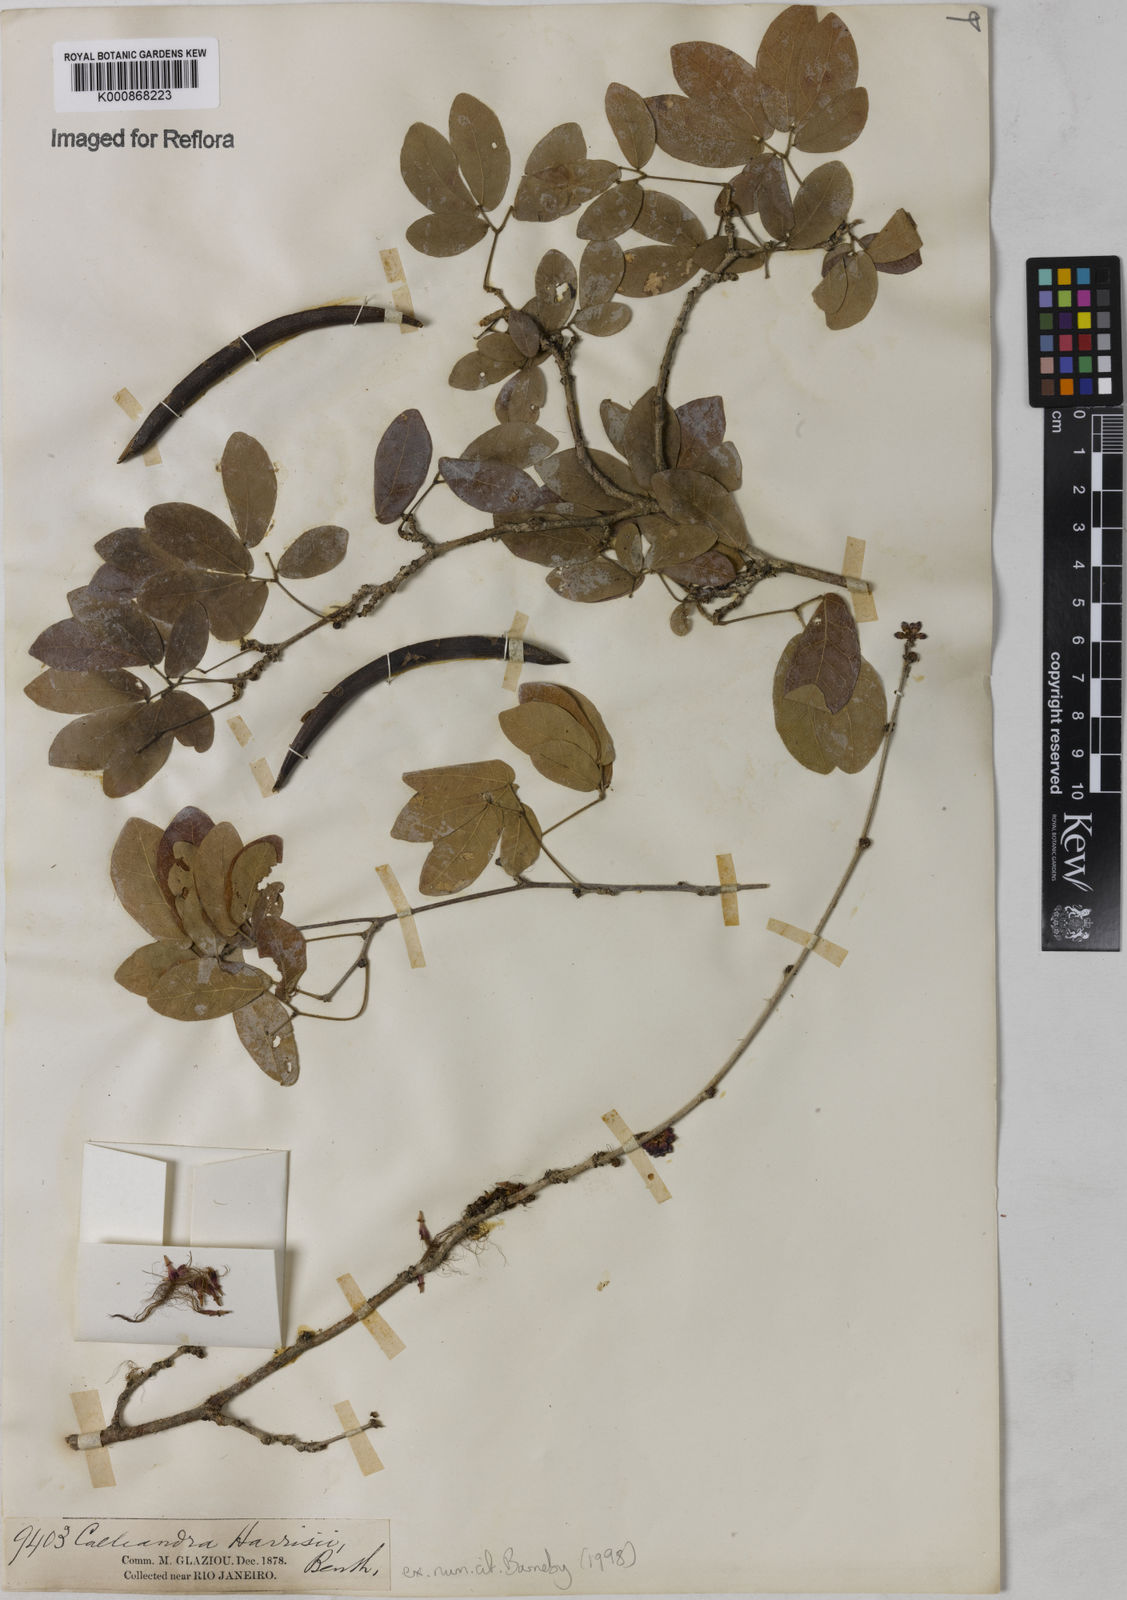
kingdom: Plantae
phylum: Tracheophyta
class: Magnoliopsida
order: Fabales
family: Fabaceae
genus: Calliandra
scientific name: Calliandra harrisii
